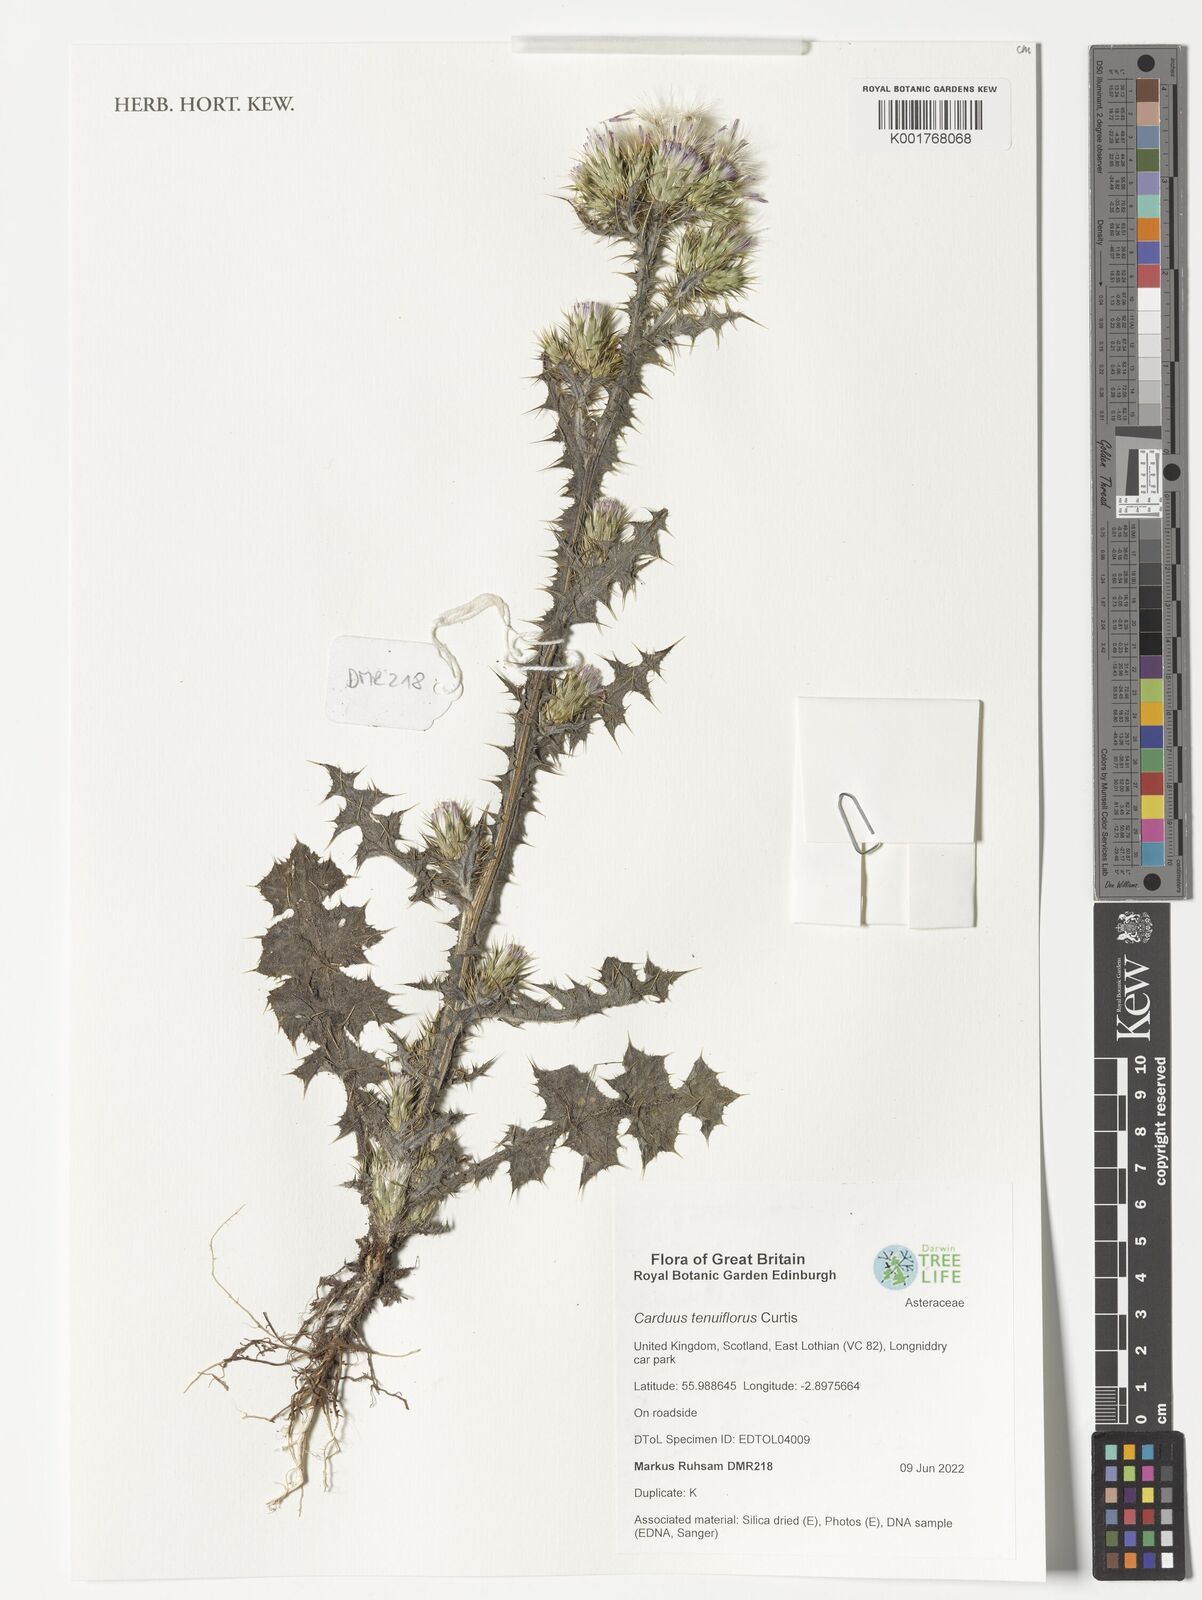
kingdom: Plantae
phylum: Tracheophyta
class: Magnoliopsida
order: Asterales
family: Asteraceae
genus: Carduus
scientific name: Carduus tenuiflorus
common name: Slender thistle
